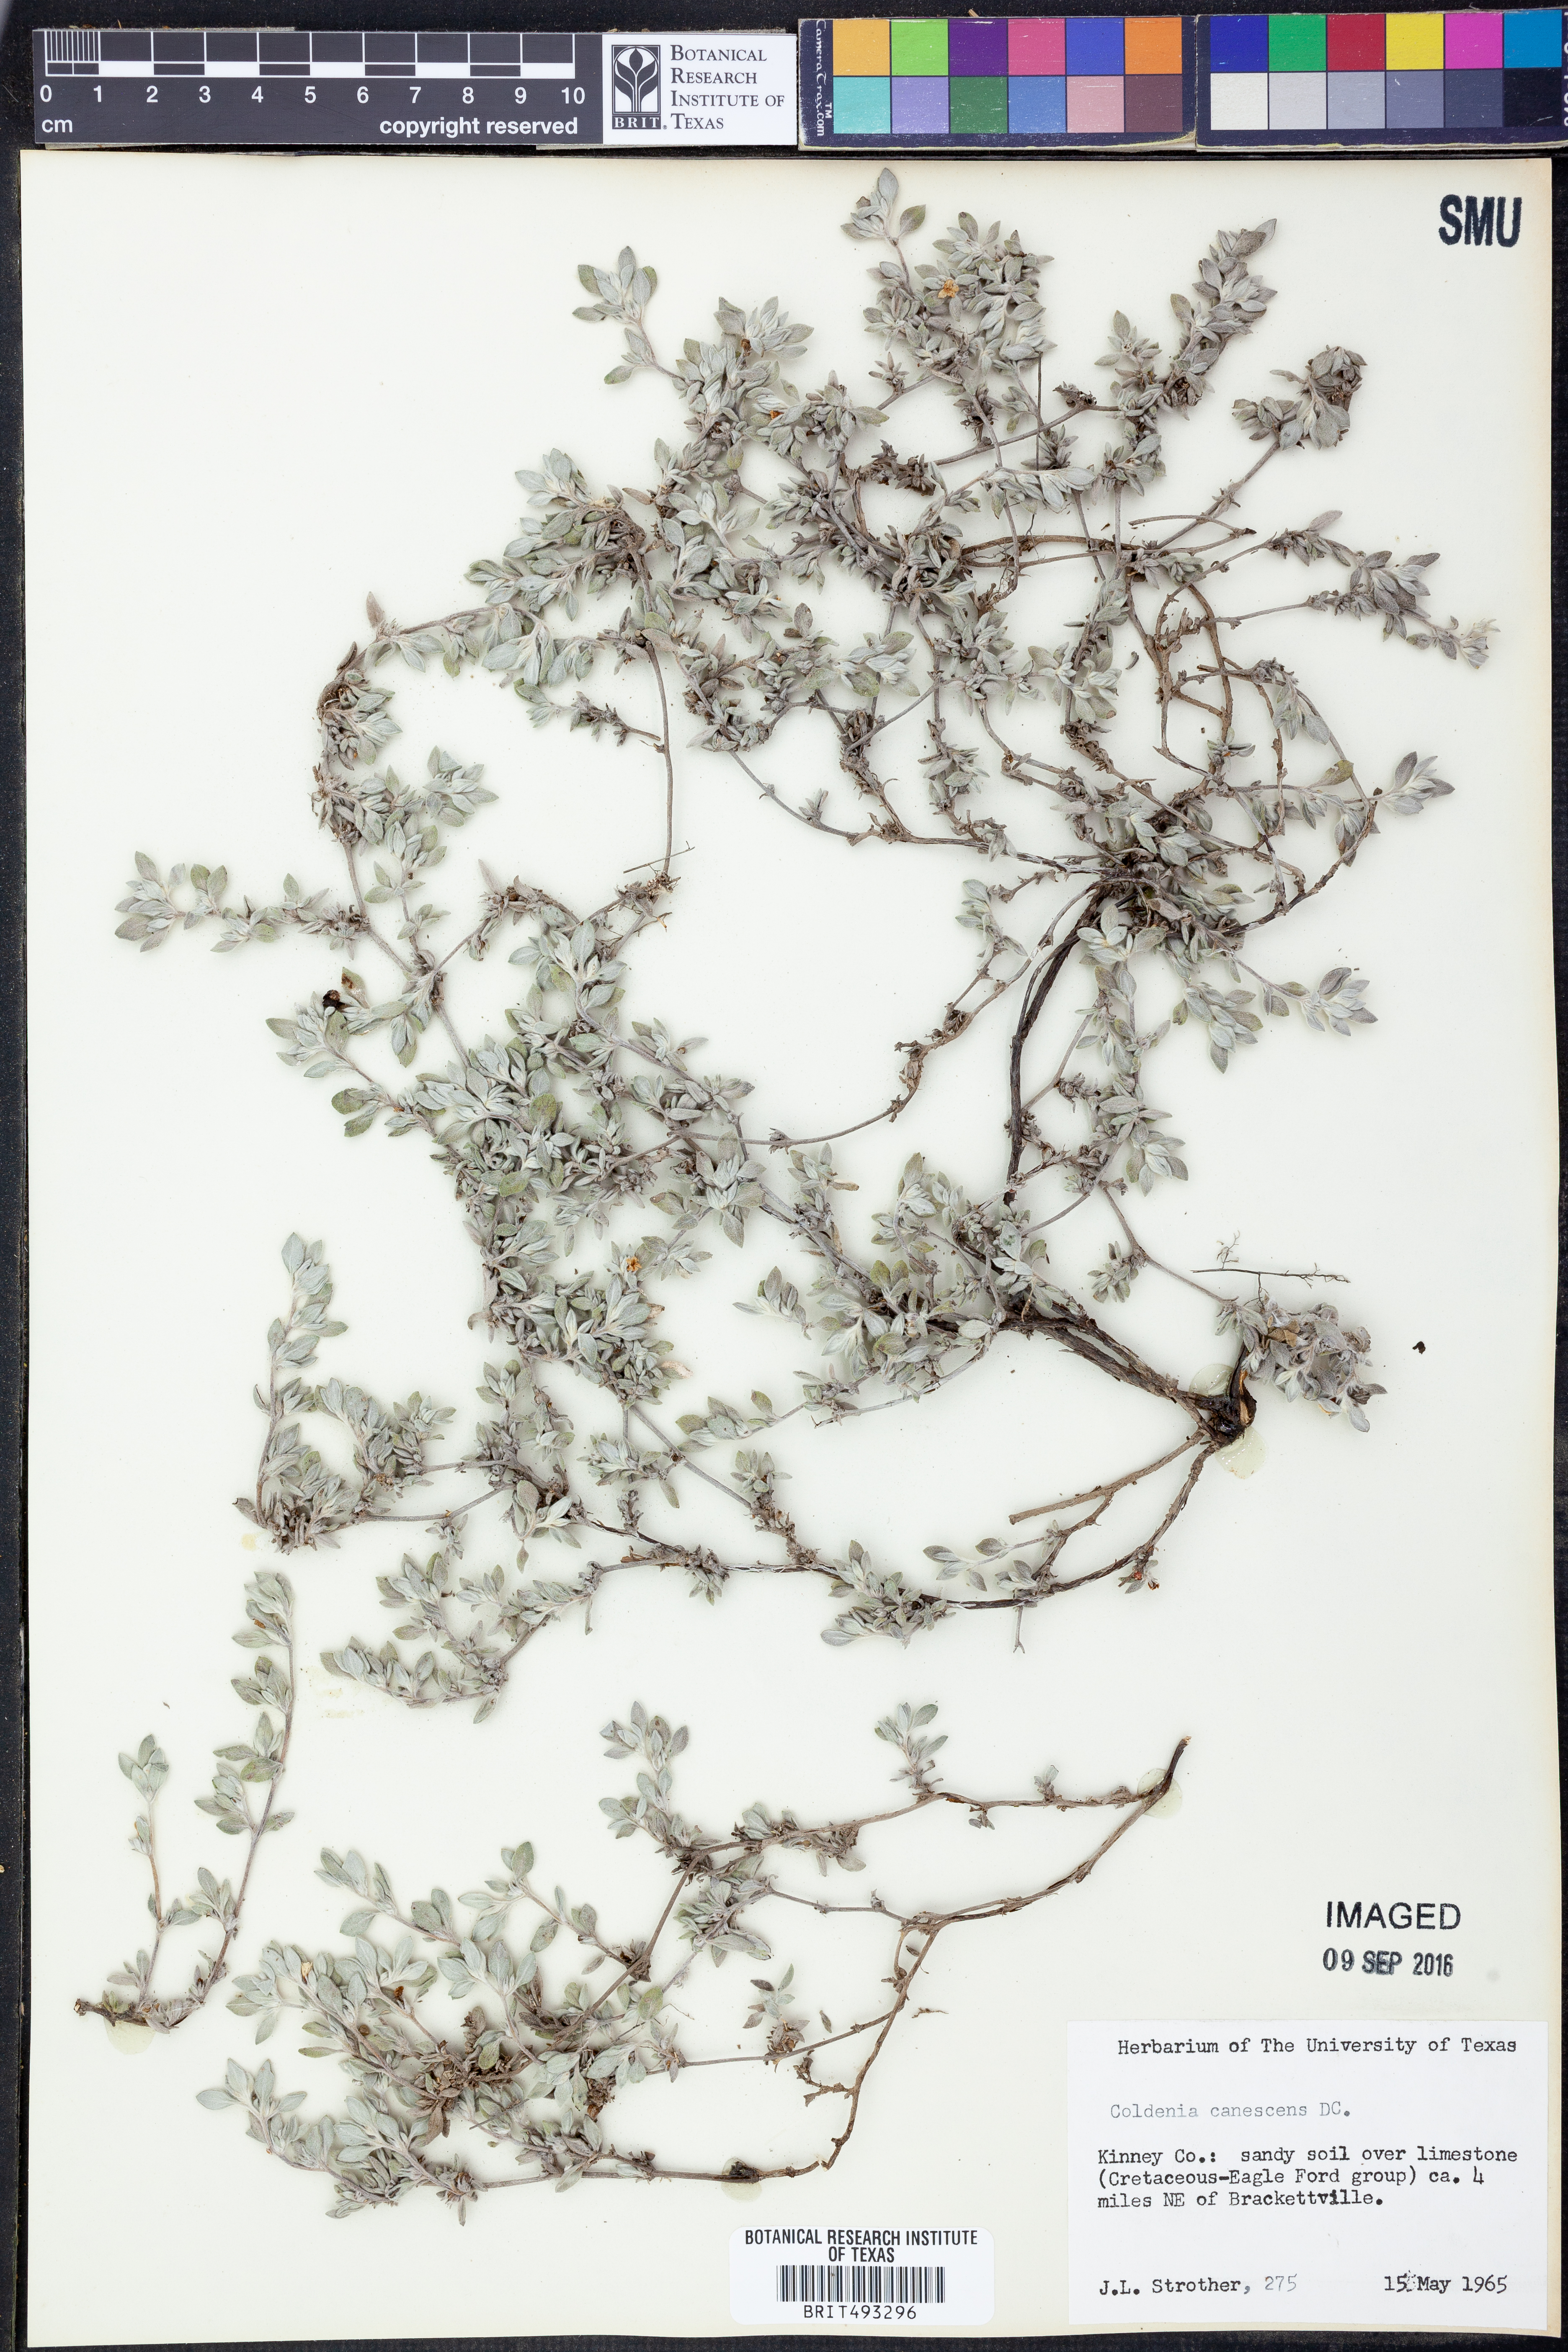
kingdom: Plantae
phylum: Tracheophyta
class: Magnoliopsida
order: Boraginales
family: Ehretiaceae
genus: Tiquilia
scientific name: Tiquilia canescens
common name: Hairy tiquilia
